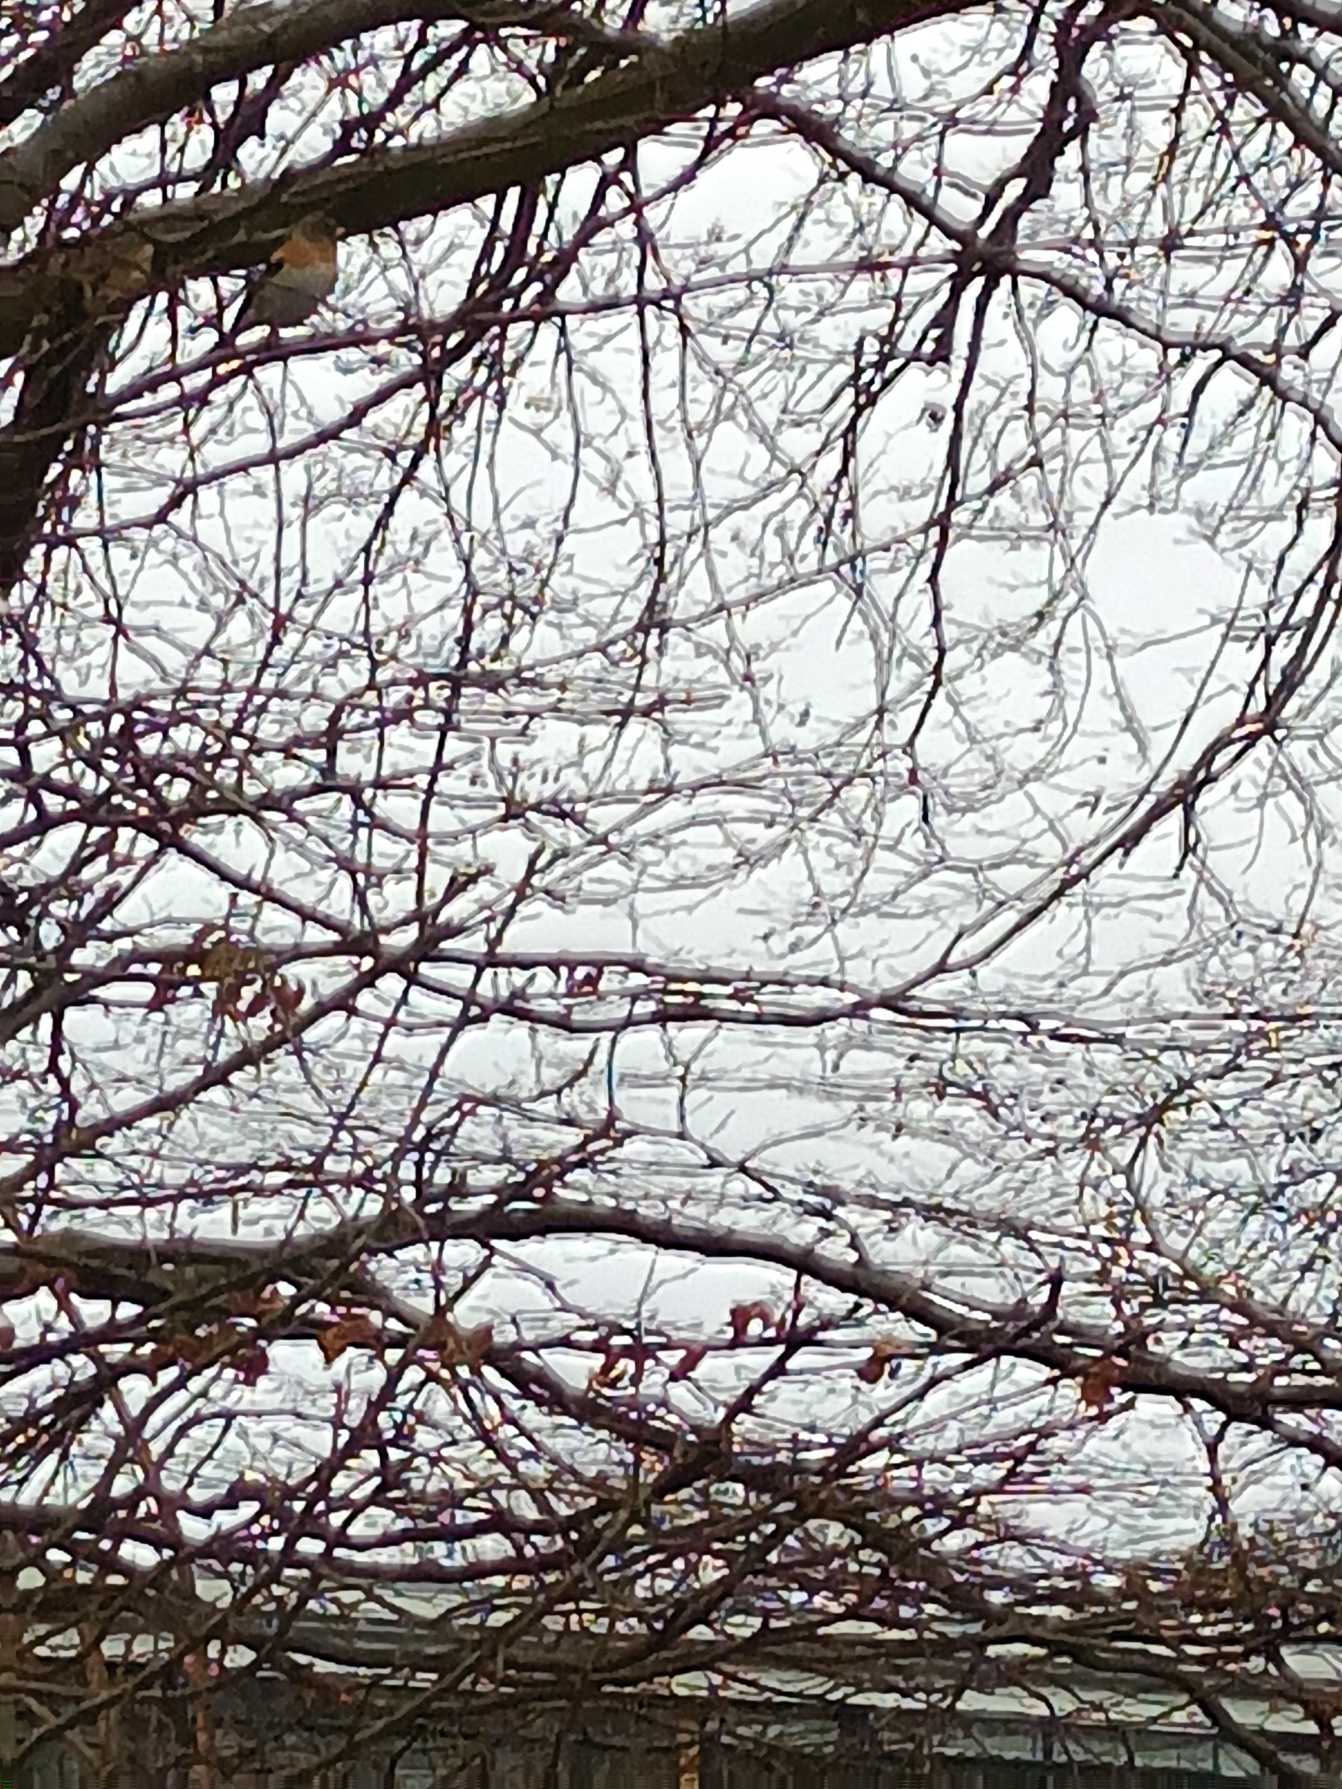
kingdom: Animalia
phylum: Chordata
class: Aves
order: Passeriformes
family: Fringillidae
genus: Fringilla
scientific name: Fringilla montifringilla
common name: Kvækerfinke
